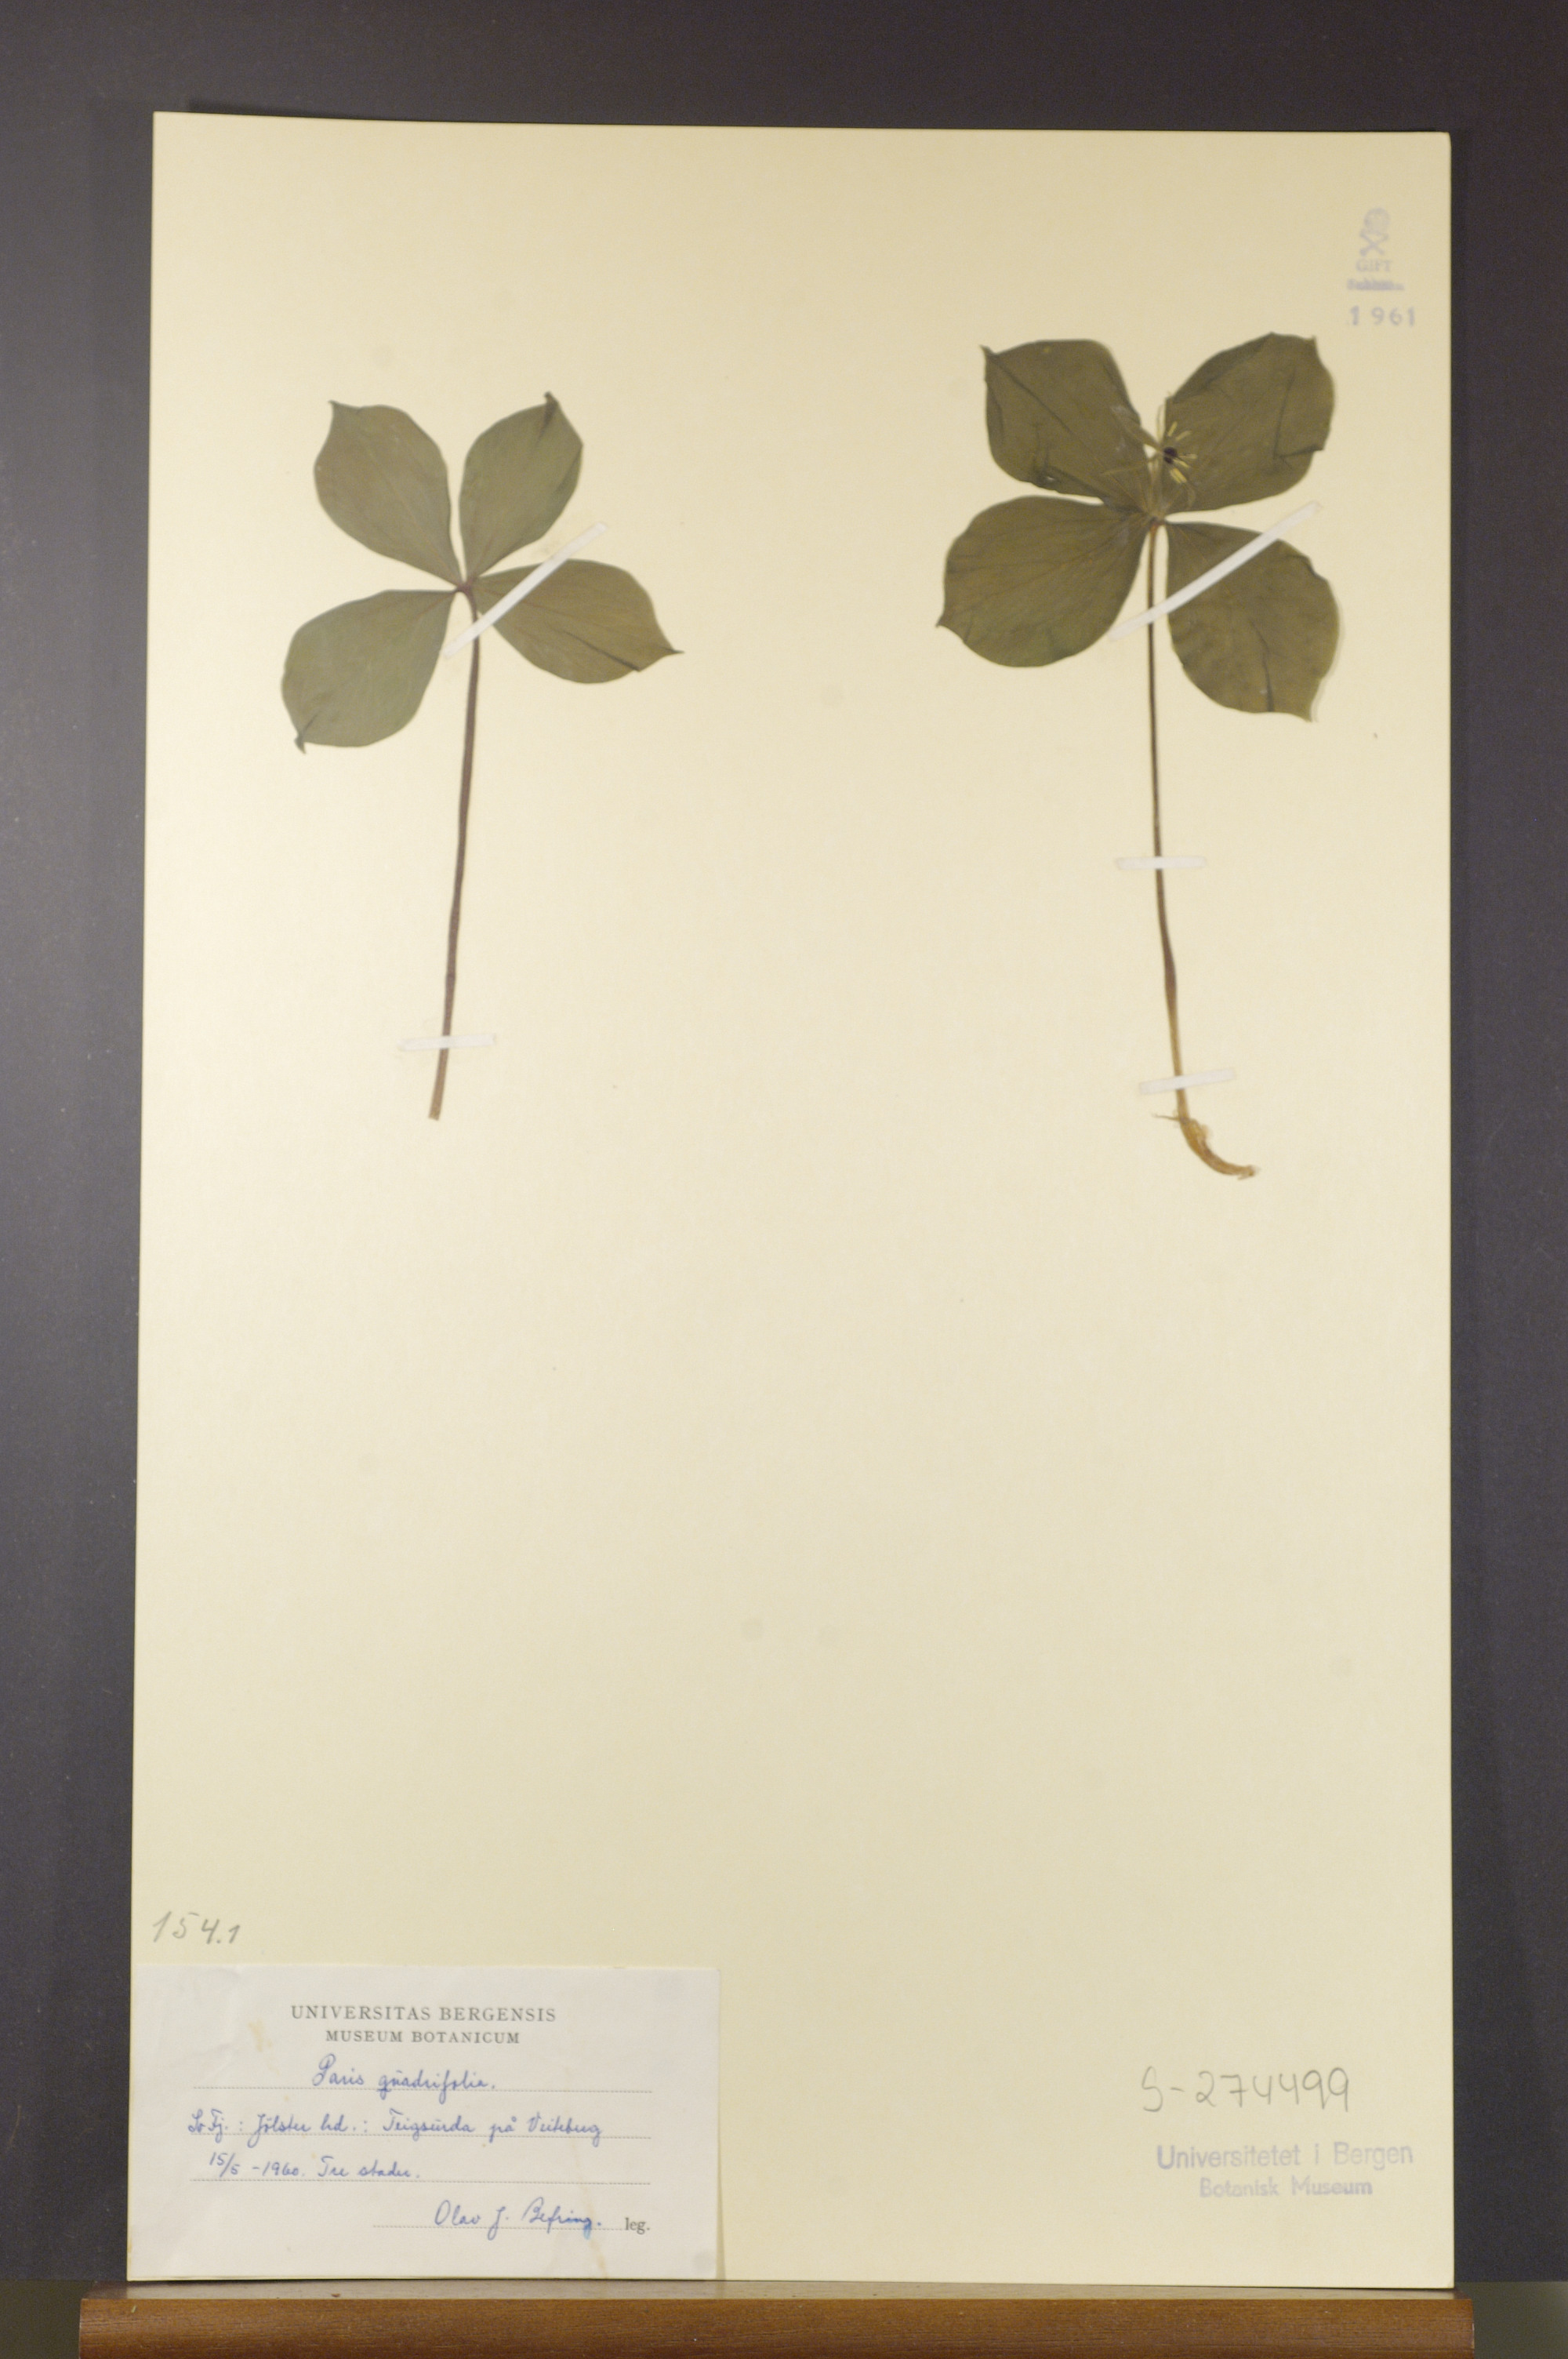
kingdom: Plantae
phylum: Tracheophyta
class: Liliopsida
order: Liliales
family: Melanthiaceae
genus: Paris
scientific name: Paris quadrifolia
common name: Herb-paris
